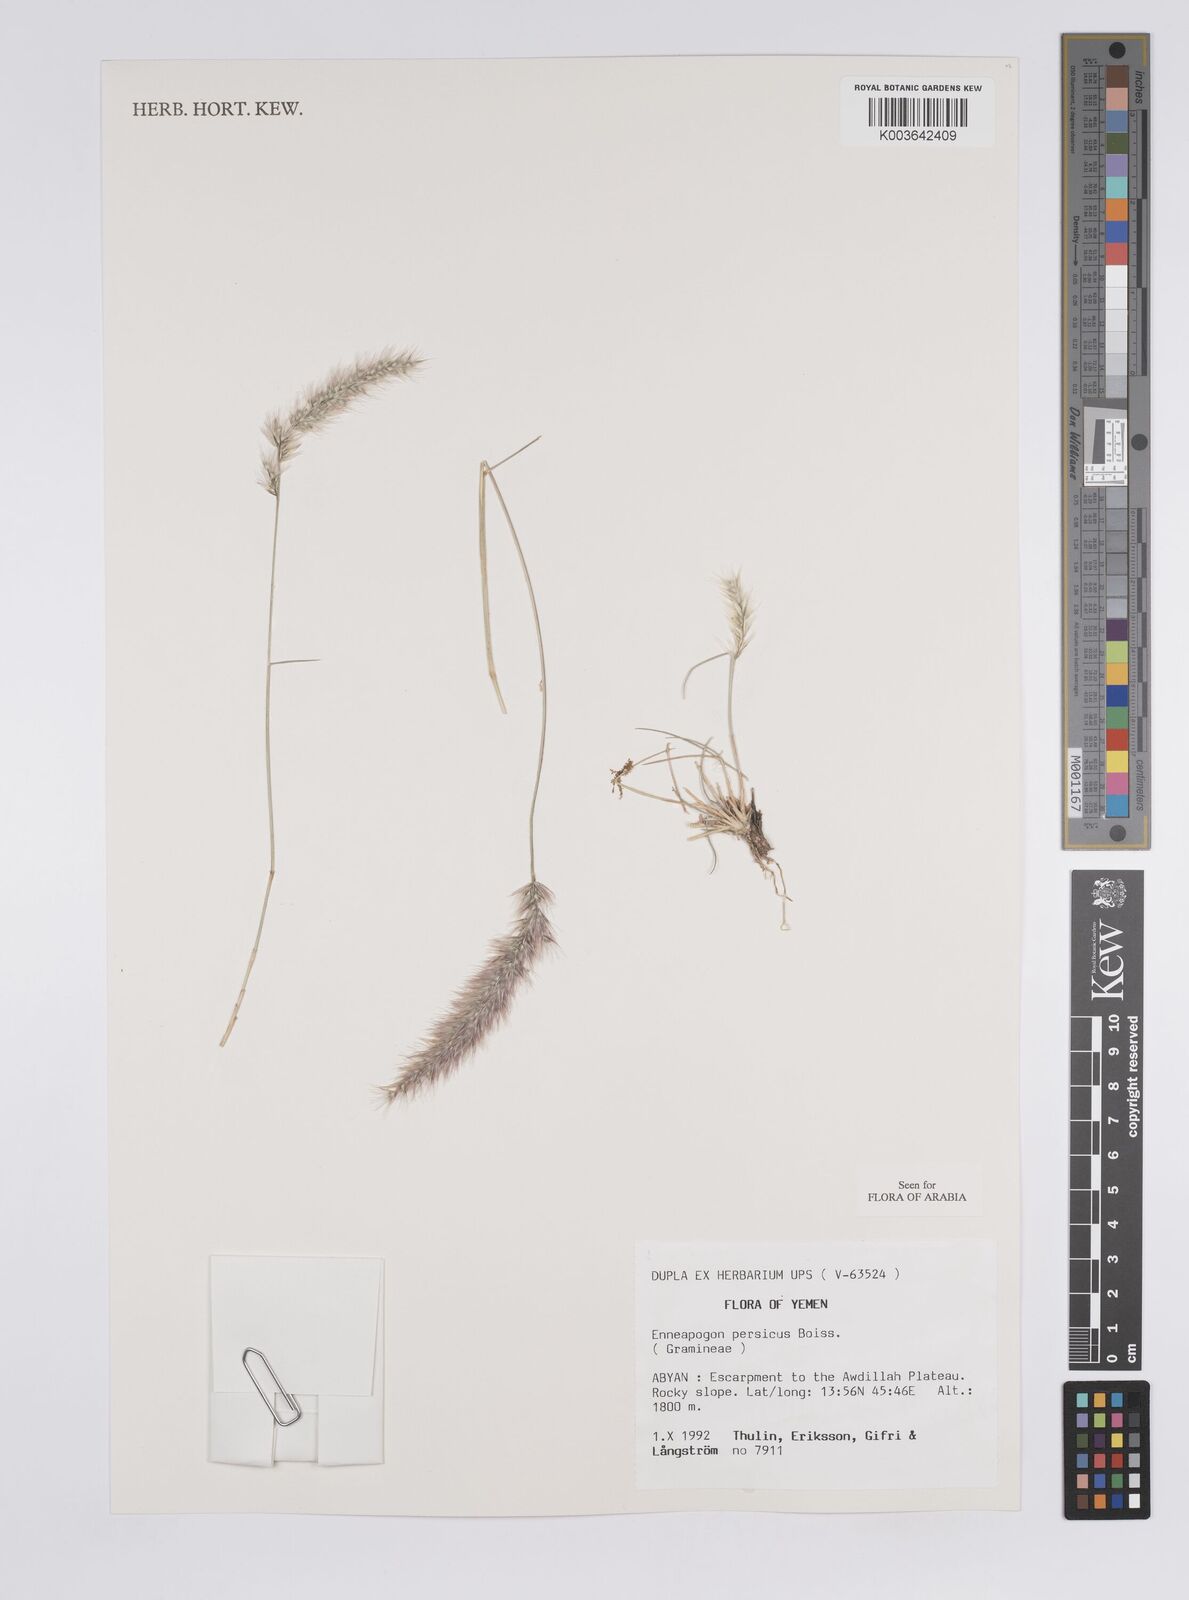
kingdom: Plantae
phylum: Tracheophyta
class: Liliopsida
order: Poales
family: Poaceae
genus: Enneapogon
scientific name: Enneapogon persicus
